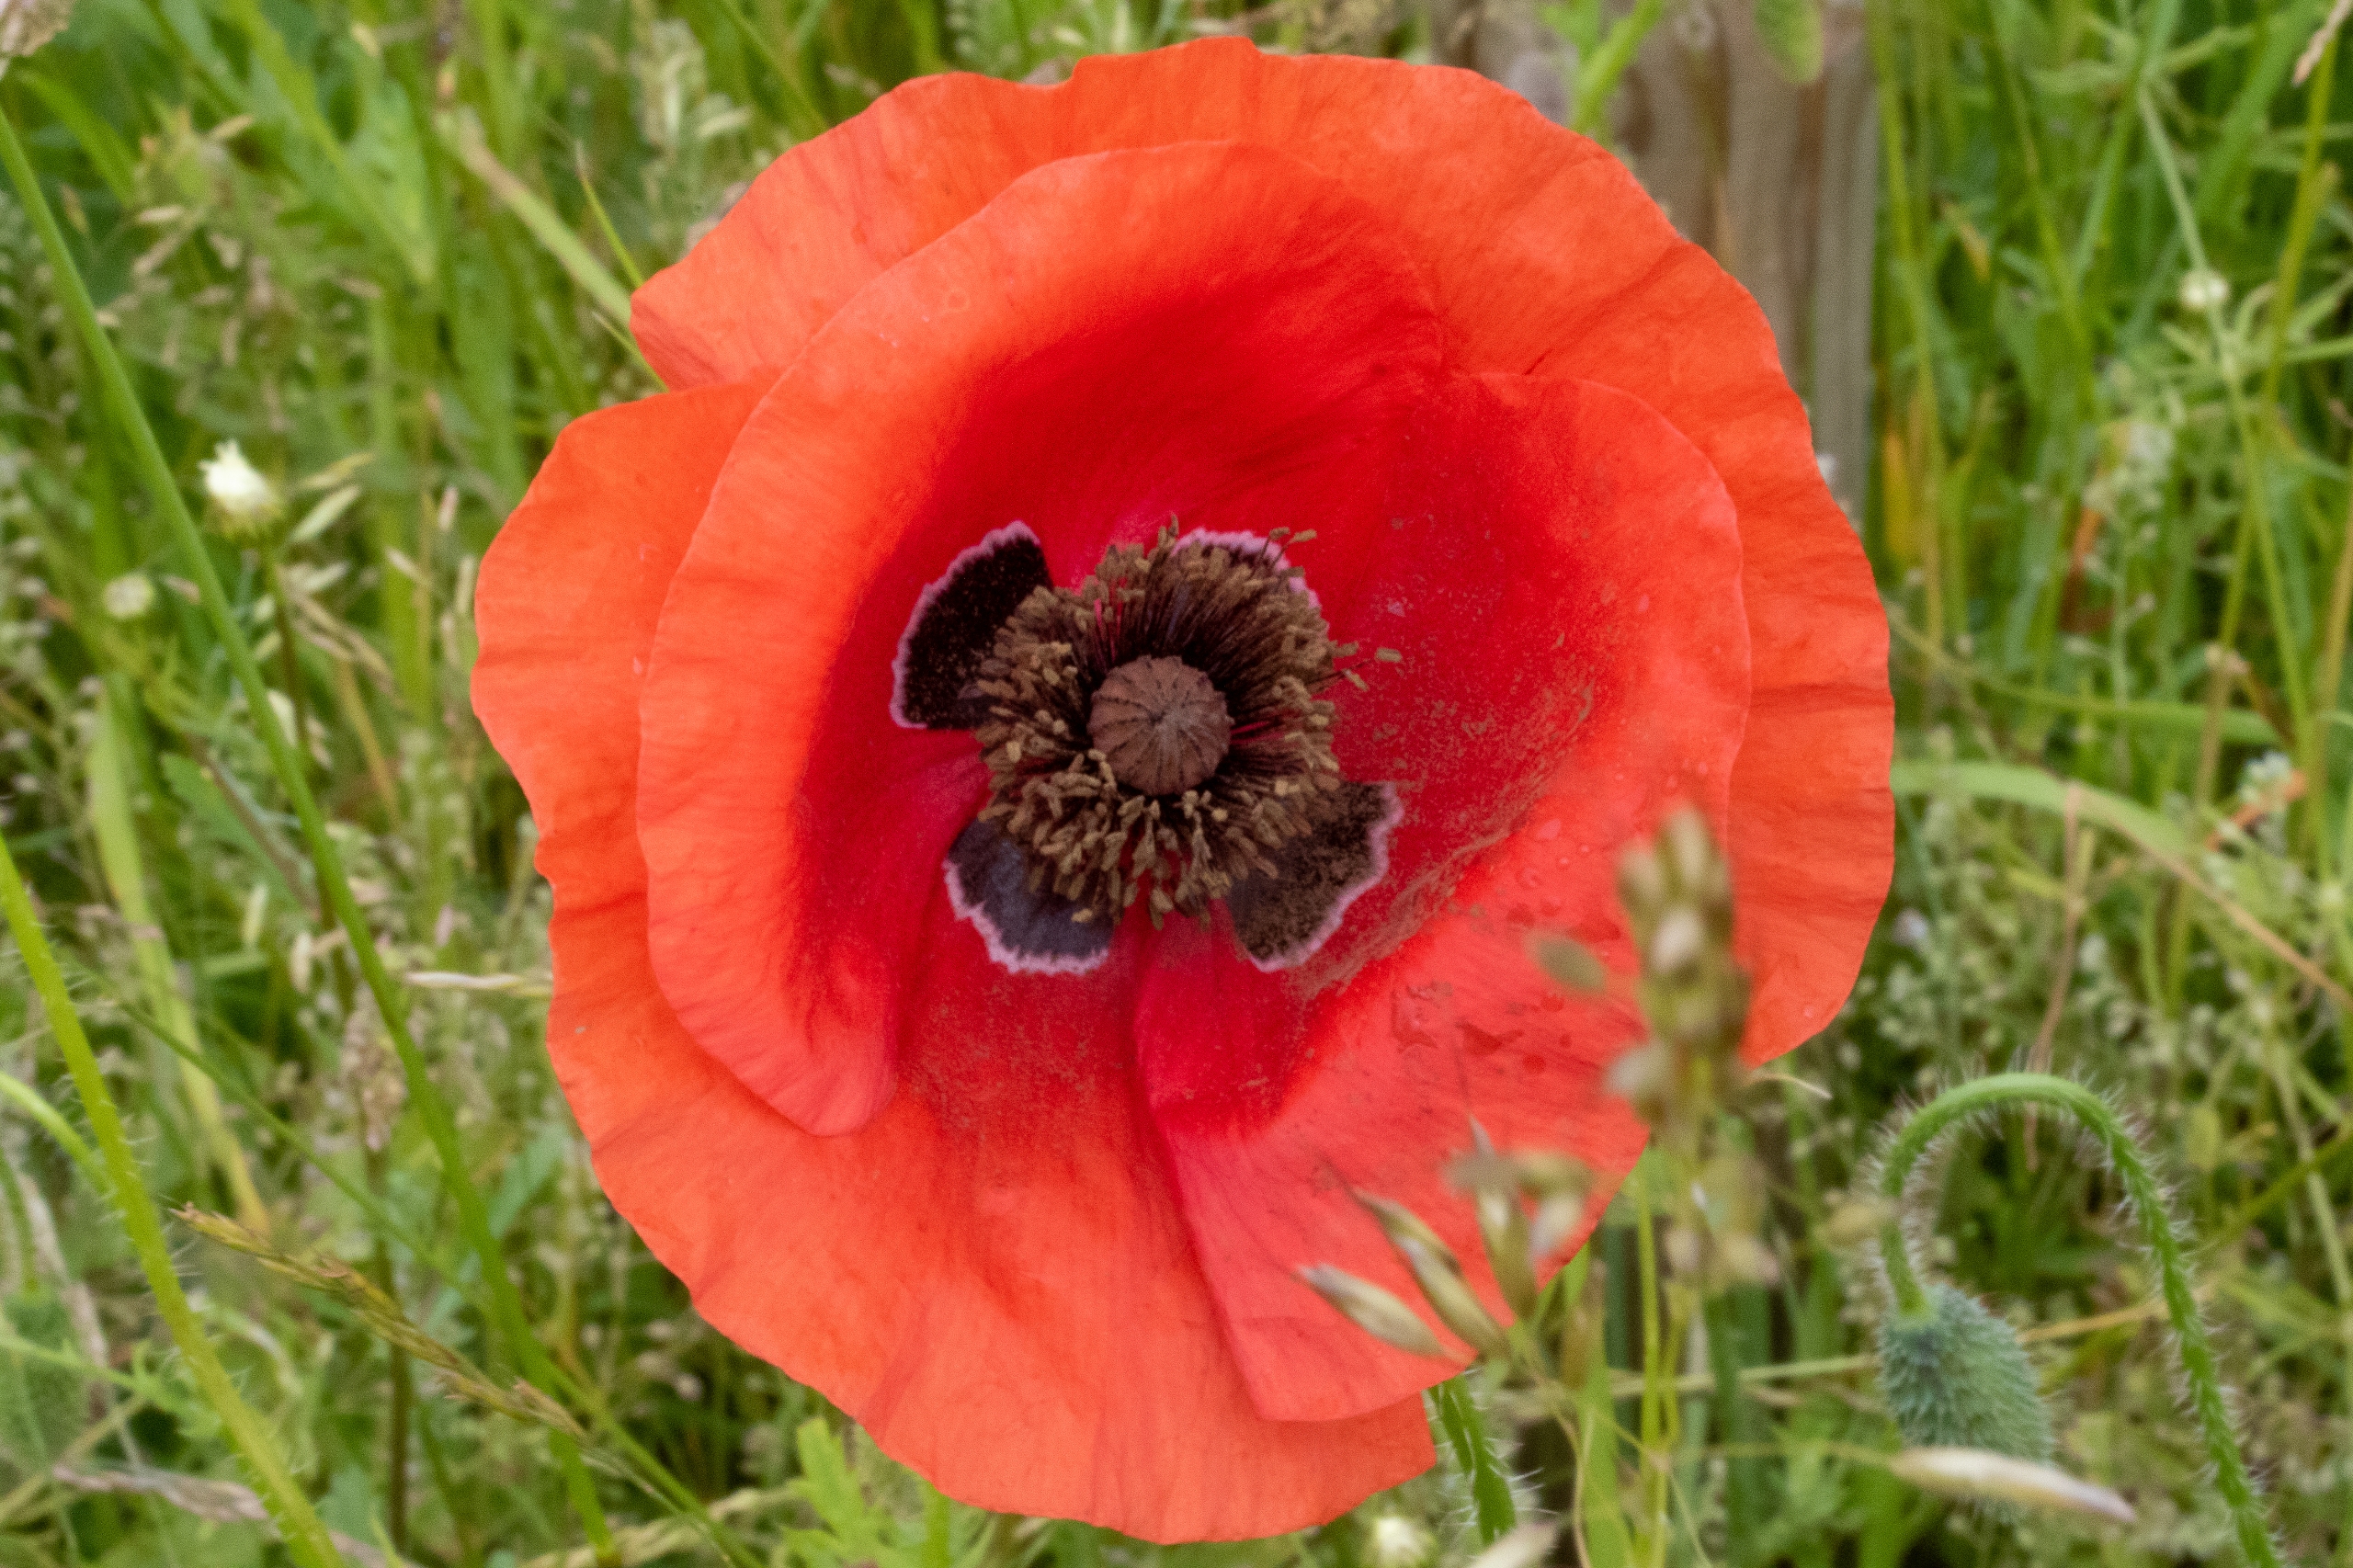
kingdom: Plantae
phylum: Tracheophyta
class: Magnoliopsida
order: Ranunculales
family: Papaveraceae
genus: Papaver
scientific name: Papaver rhoeas
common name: Korn-valmue
